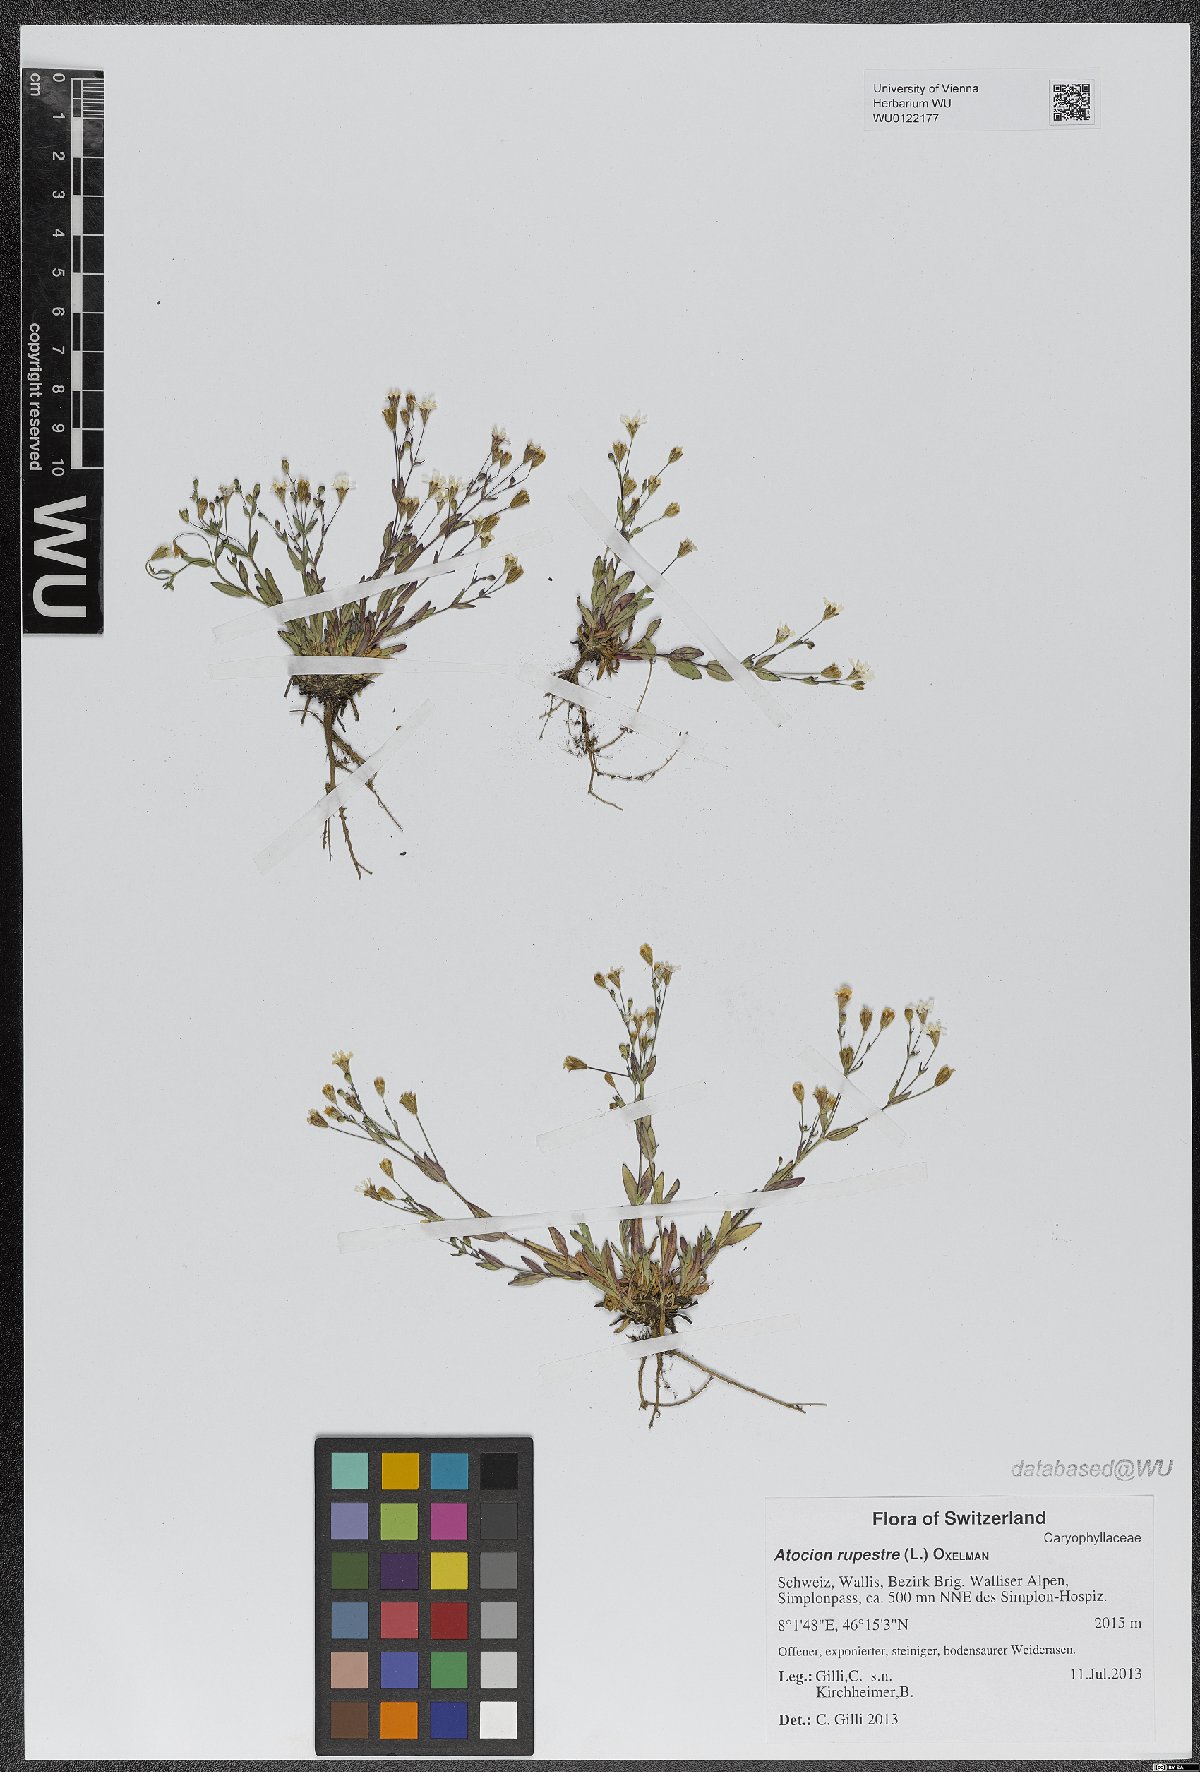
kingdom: Plantae
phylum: Tracheophyta
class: Magnoliopsida
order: Caryophyllales
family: Caryophyllaceae
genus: Atocion
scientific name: Atocion rupestre
